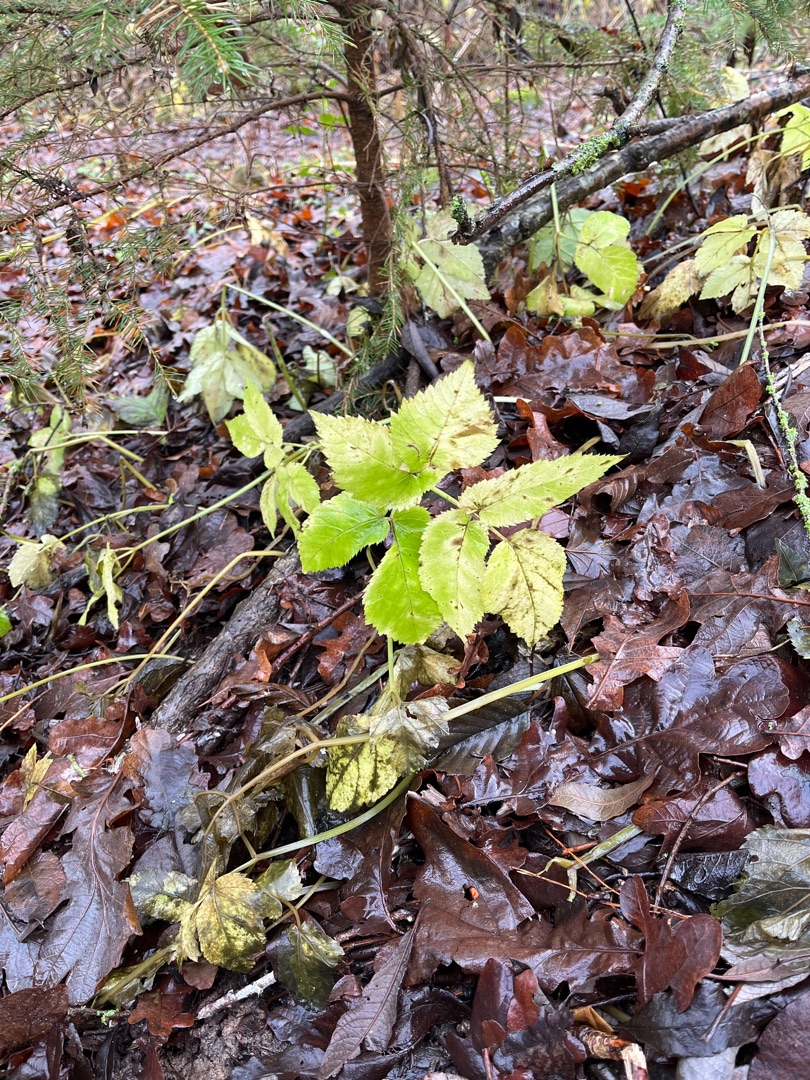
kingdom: Plantae
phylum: Tracheophyta
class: Magnoliopsida
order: Apiales
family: Apiaceae
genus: Aegopodium
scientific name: Aegopodium podagraria
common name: Skvalderkål
